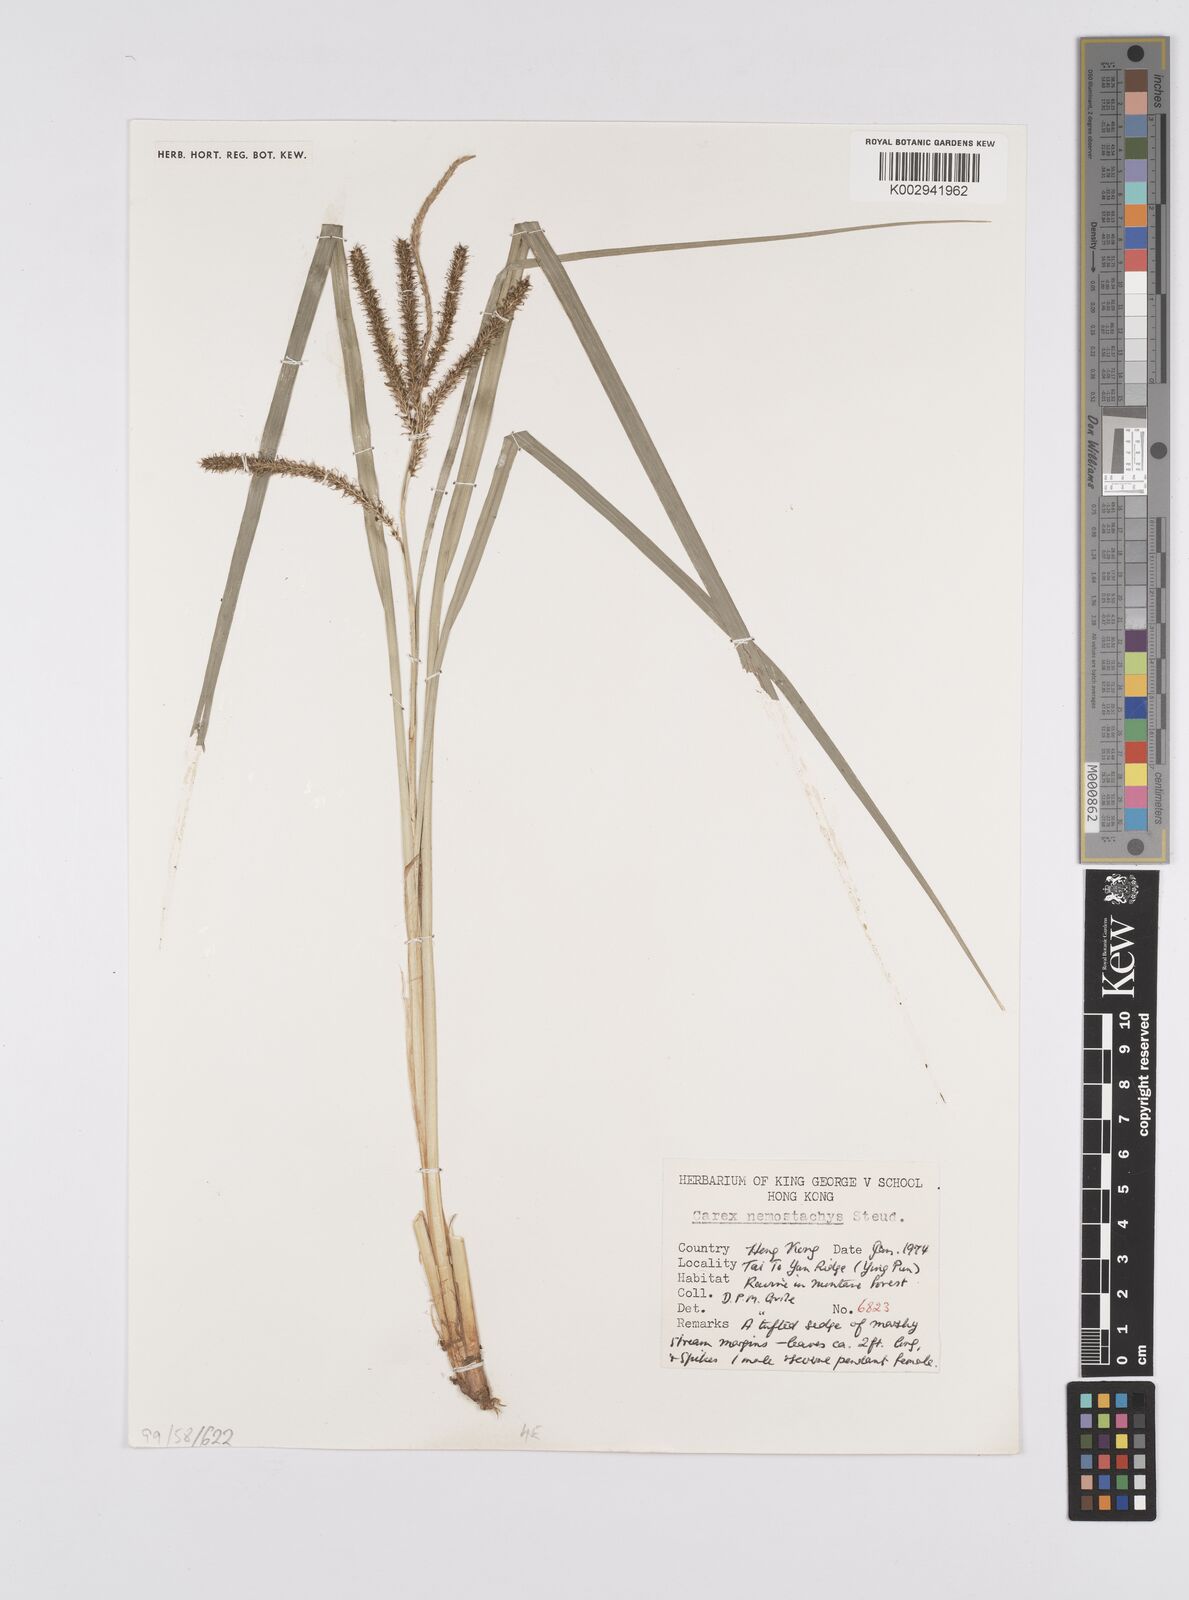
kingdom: Plantae
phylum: Tracheophyta
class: Liliopsida
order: Poales
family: Cyperaceae
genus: Carex
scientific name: Carex nemostachys
